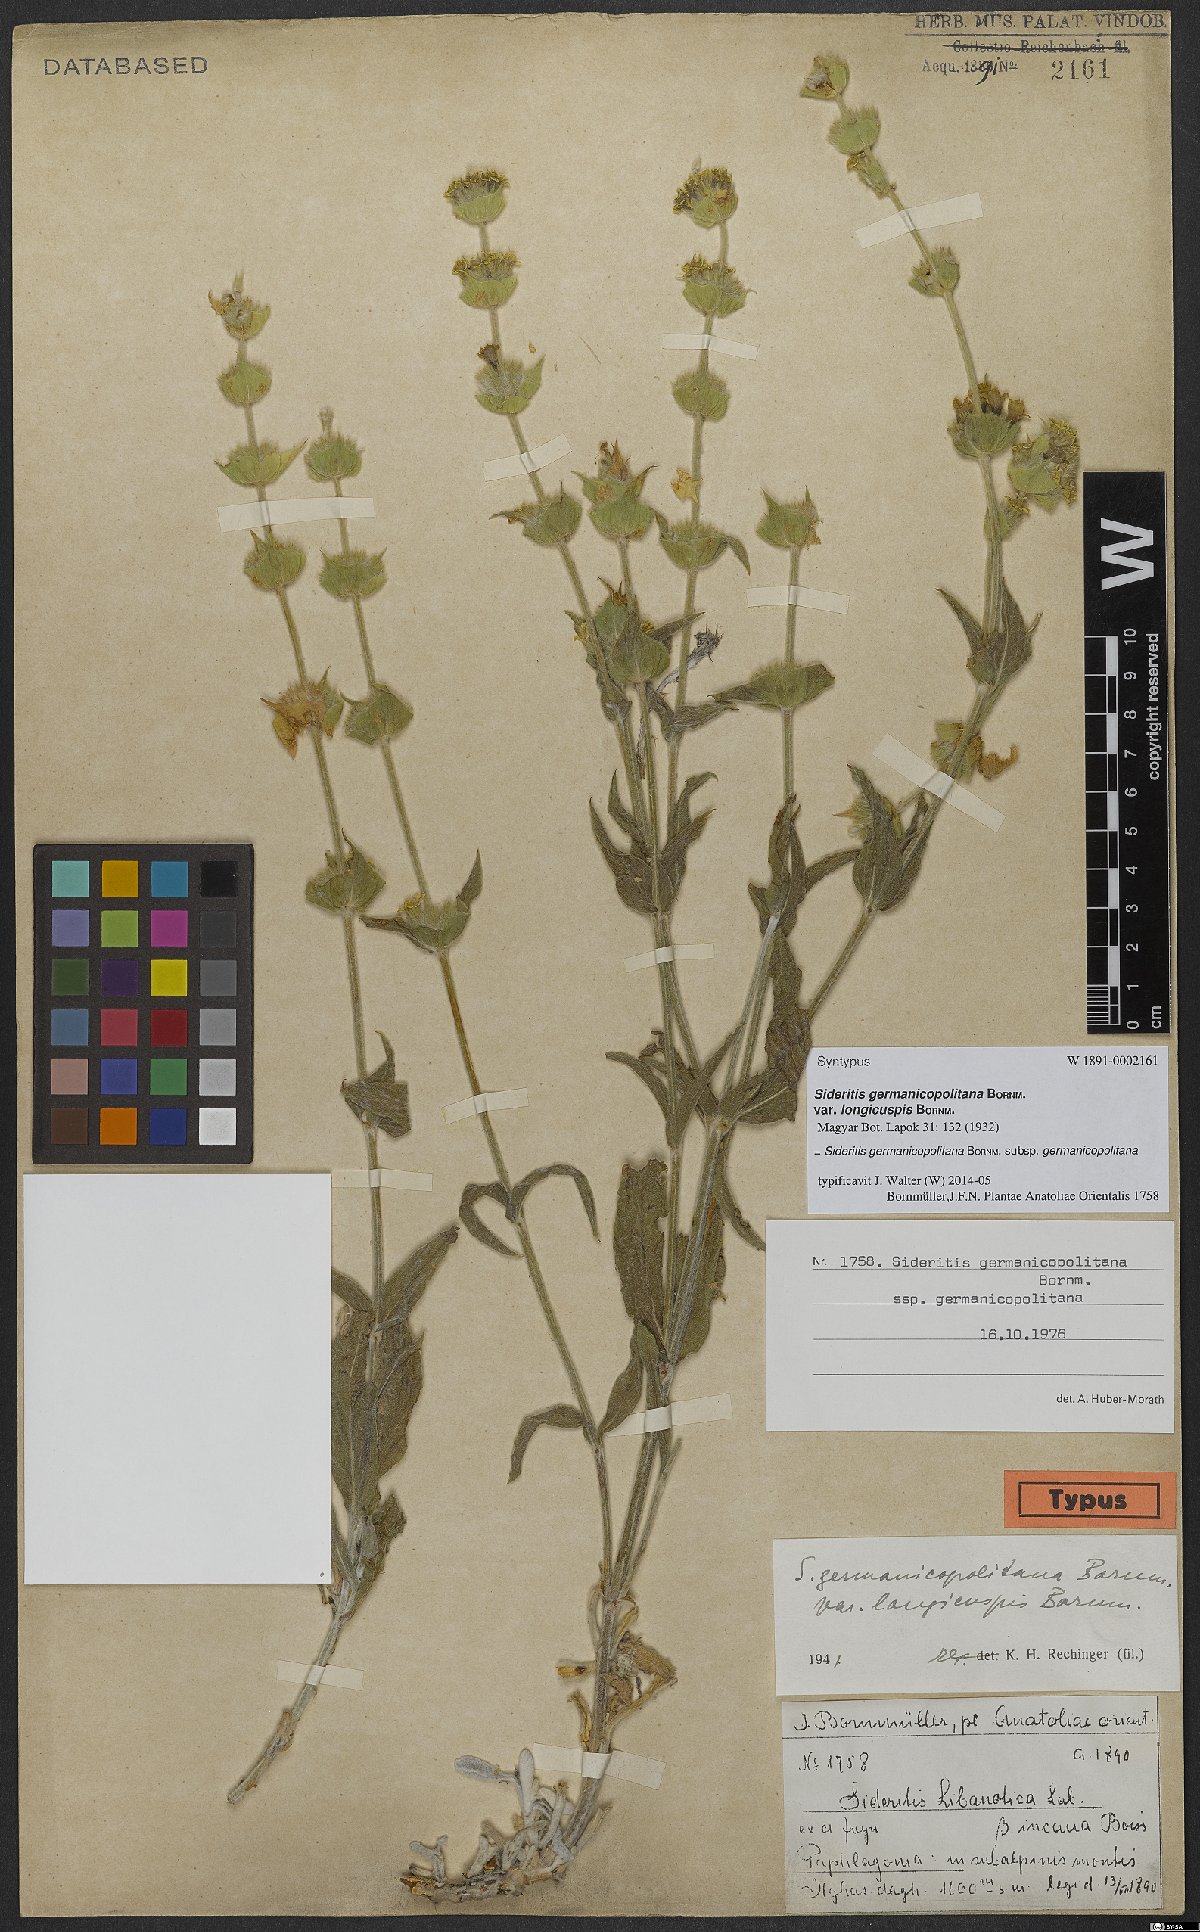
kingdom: Plantae
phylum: Tracheophyta
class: Magnoliopsida
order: Lamiales
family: Lamiaceae
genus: Sideritis
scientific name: Sideritis germanicopolitana
